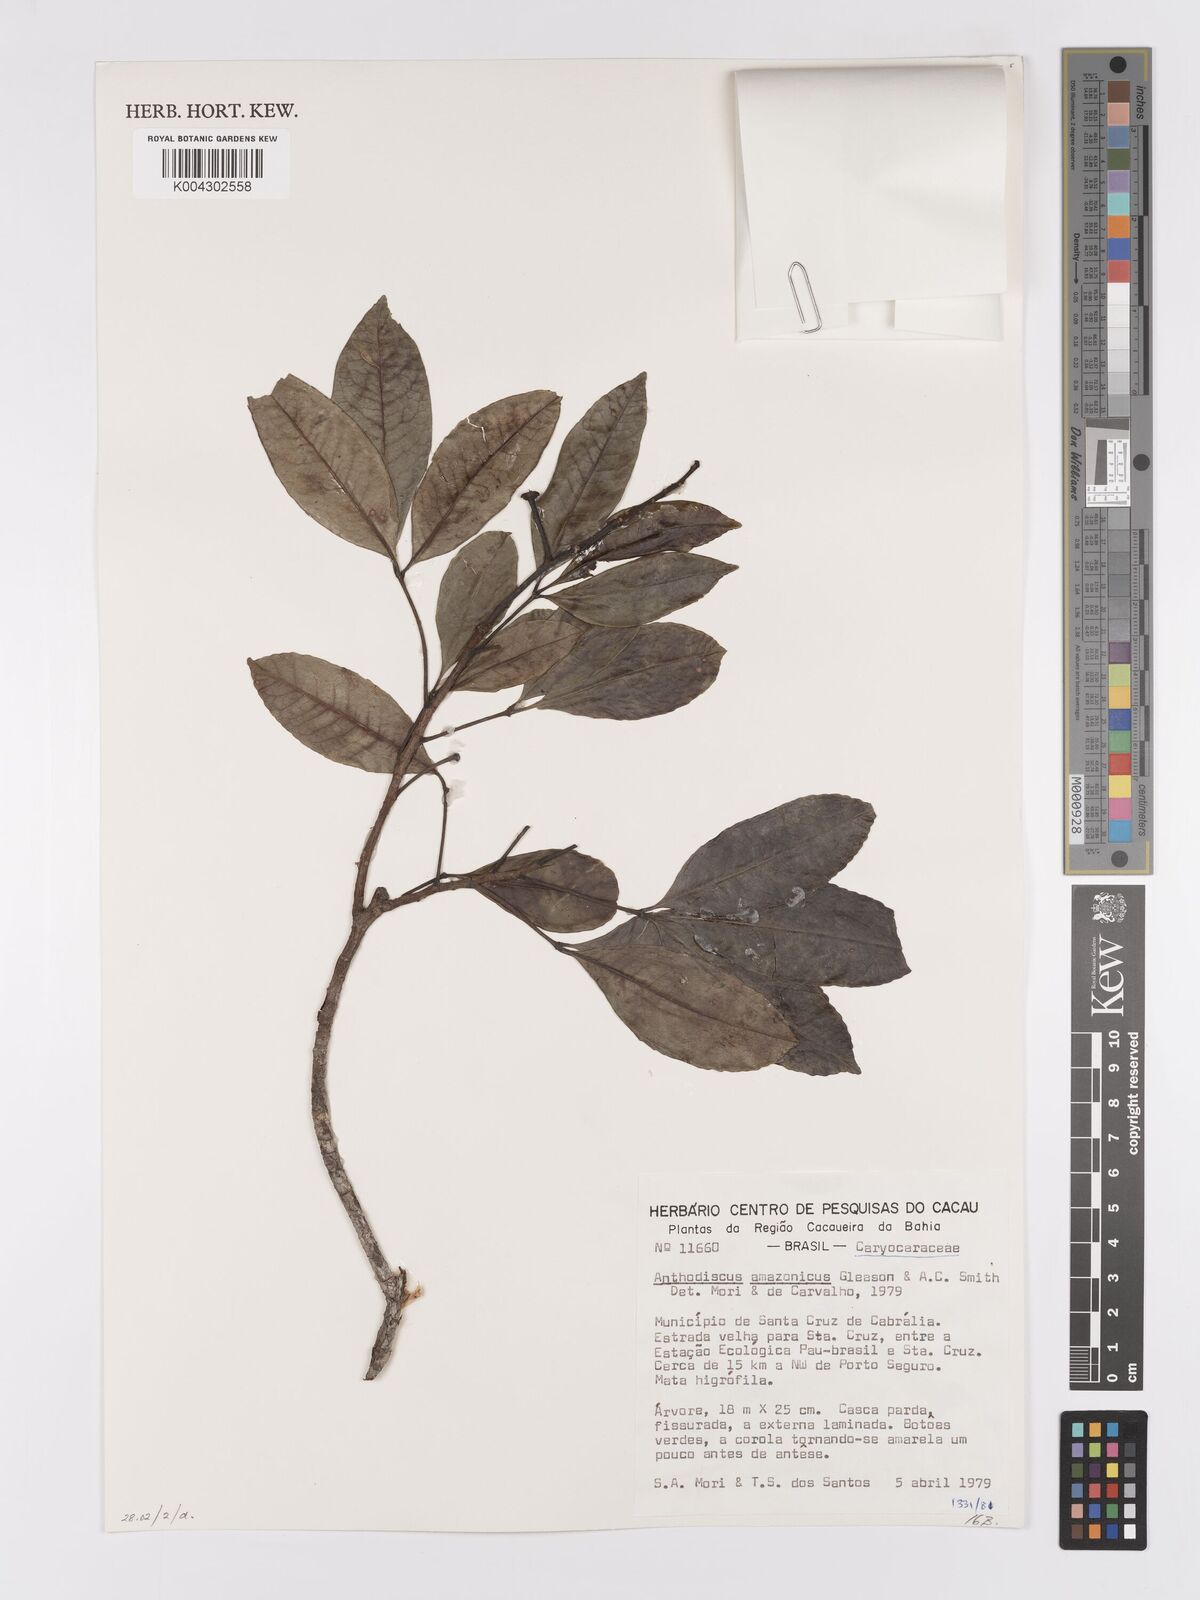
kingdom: Plantae
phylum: Tracheophyta
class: Magnoliopsida
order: Malpighiales
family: Caryocaraceae
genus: Anthodiscus
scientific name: Anthodiscus amazonicus
